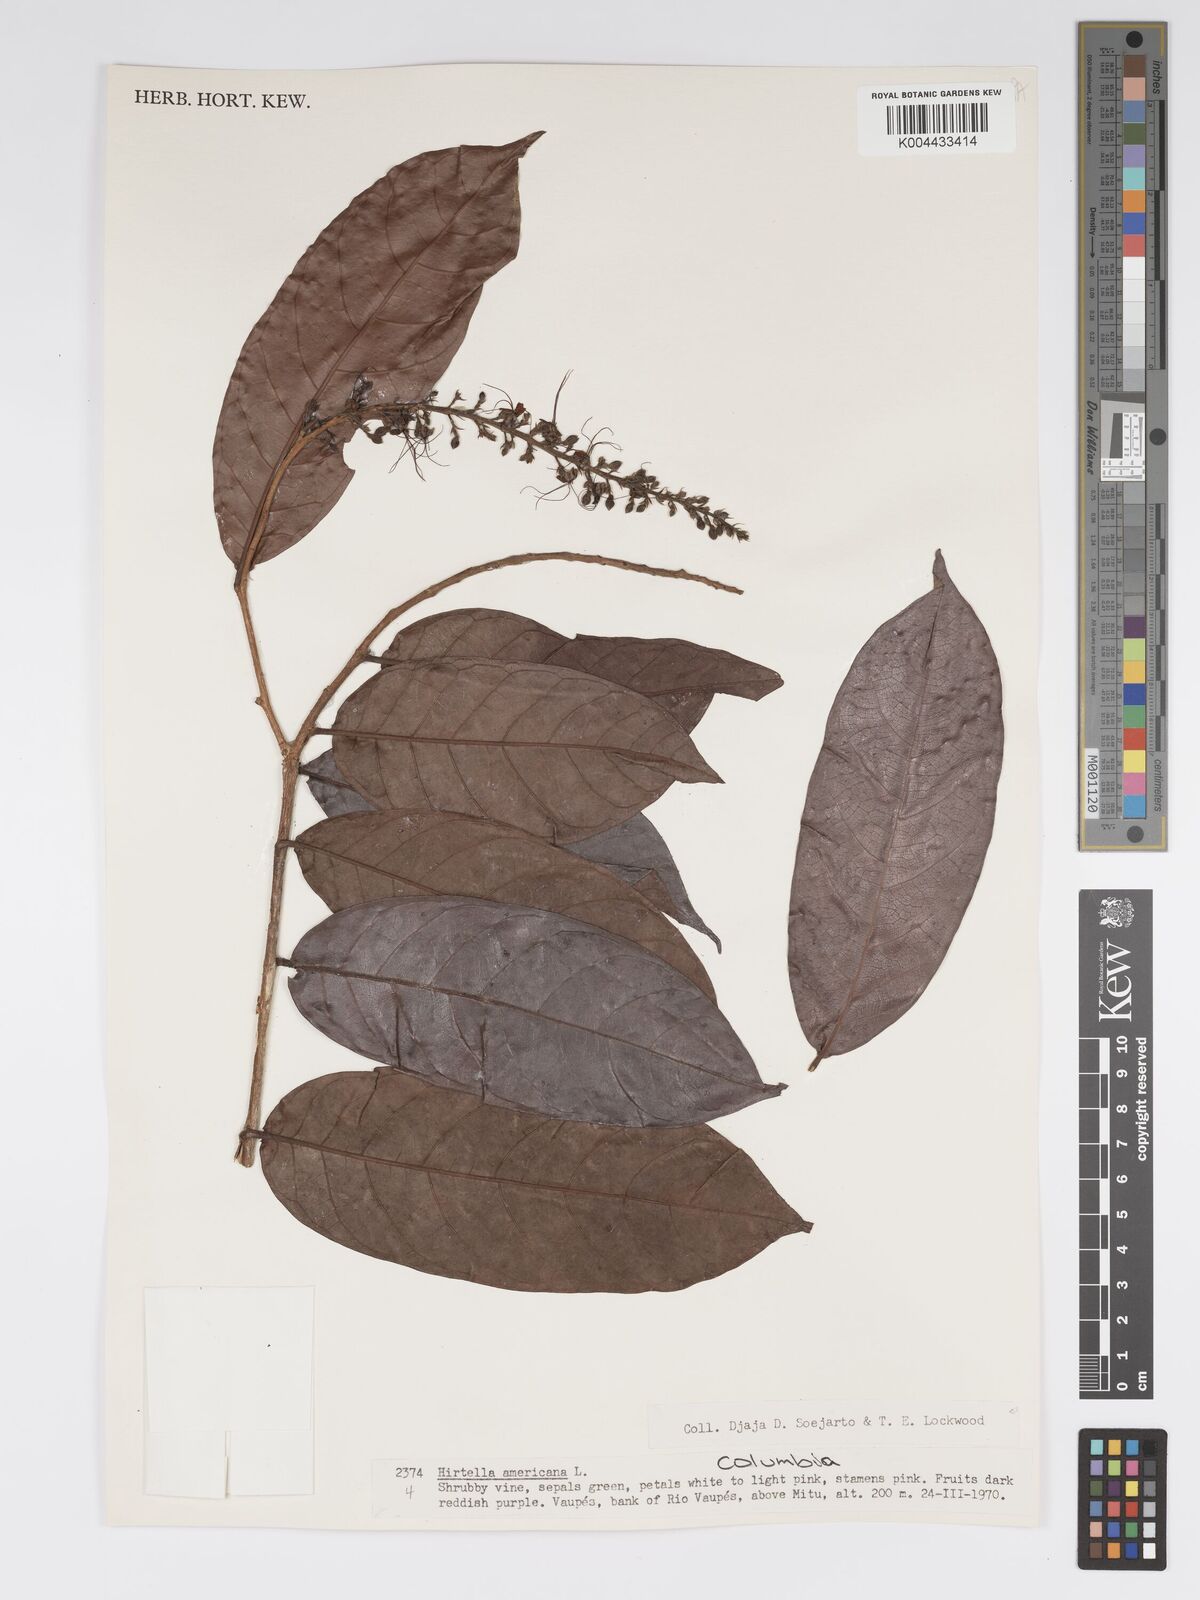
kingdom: Plantae
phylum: Tracheophyta
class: Magnoliopsida
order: Malpighiales
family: Chrysobalanaceae
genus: Hirtella
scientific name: Hirtella racemosa
